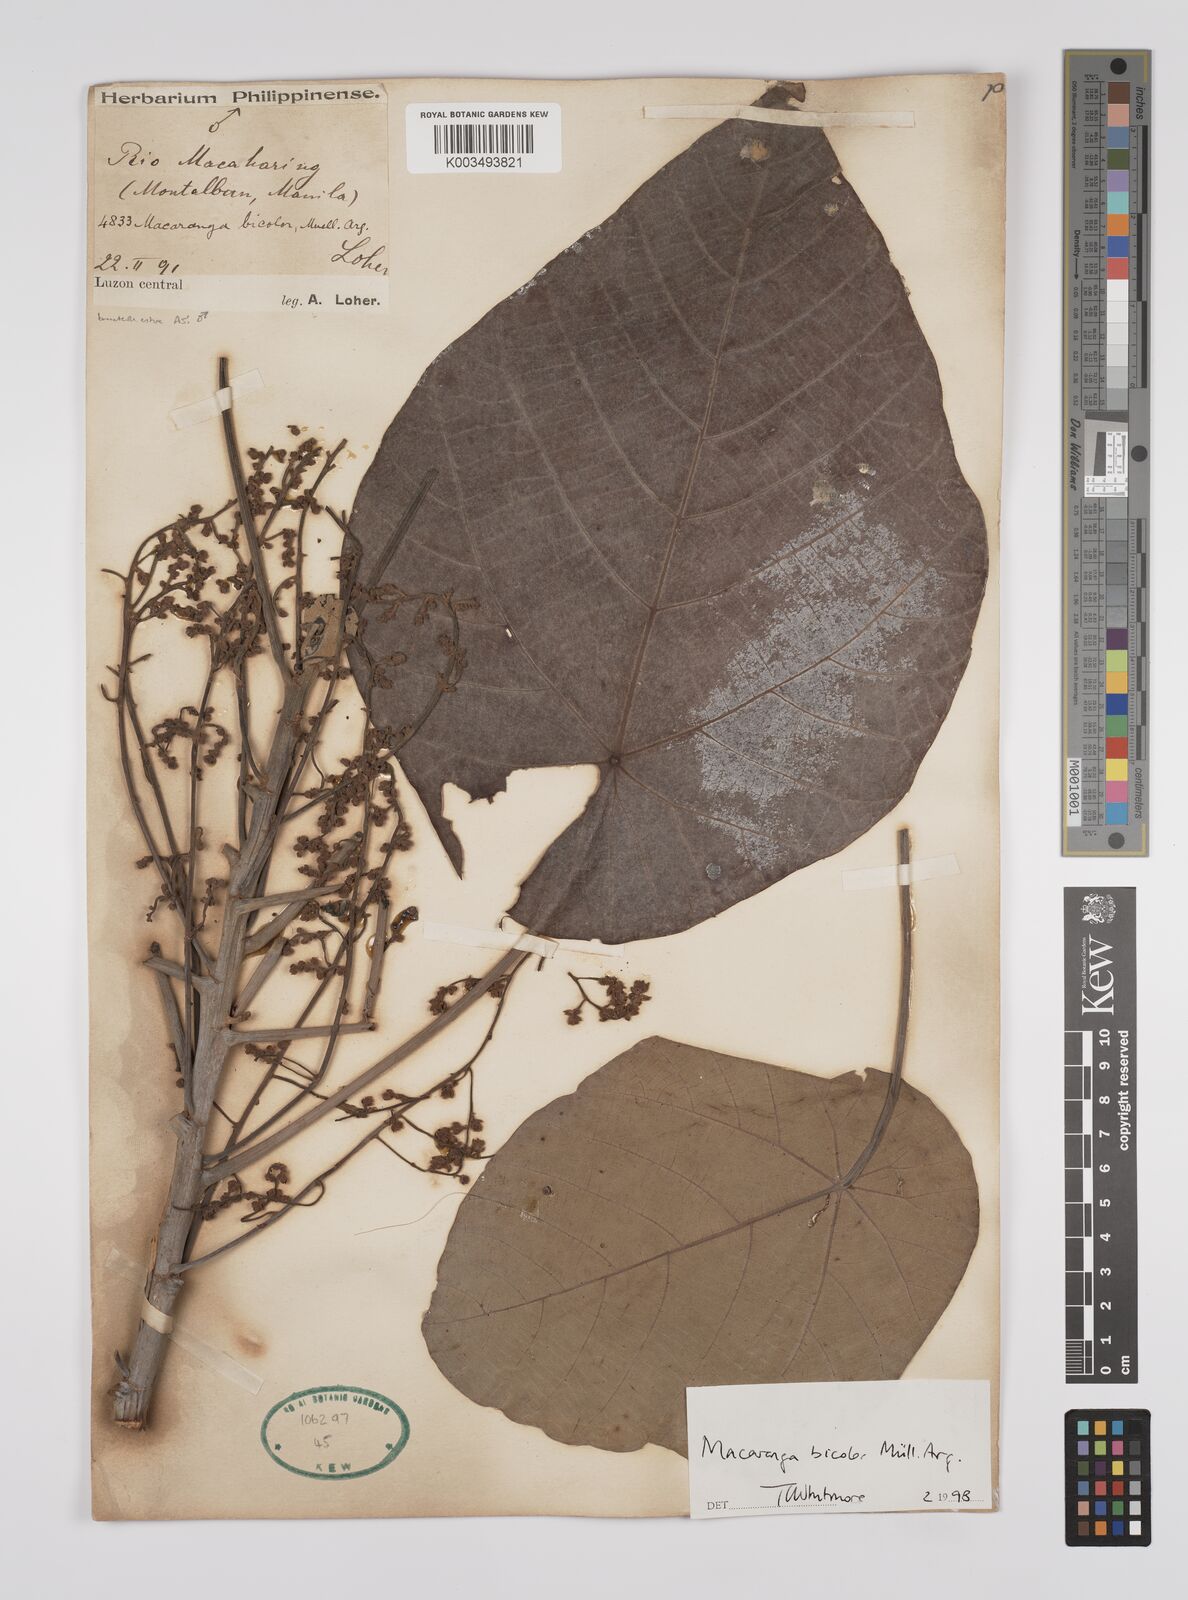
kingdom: Plantae
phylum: Tracheophyta
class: Magnoliopsida
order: Malpighiales
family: Euphorbiaceae
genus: Macaranga
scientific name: Macaranga bicolor
